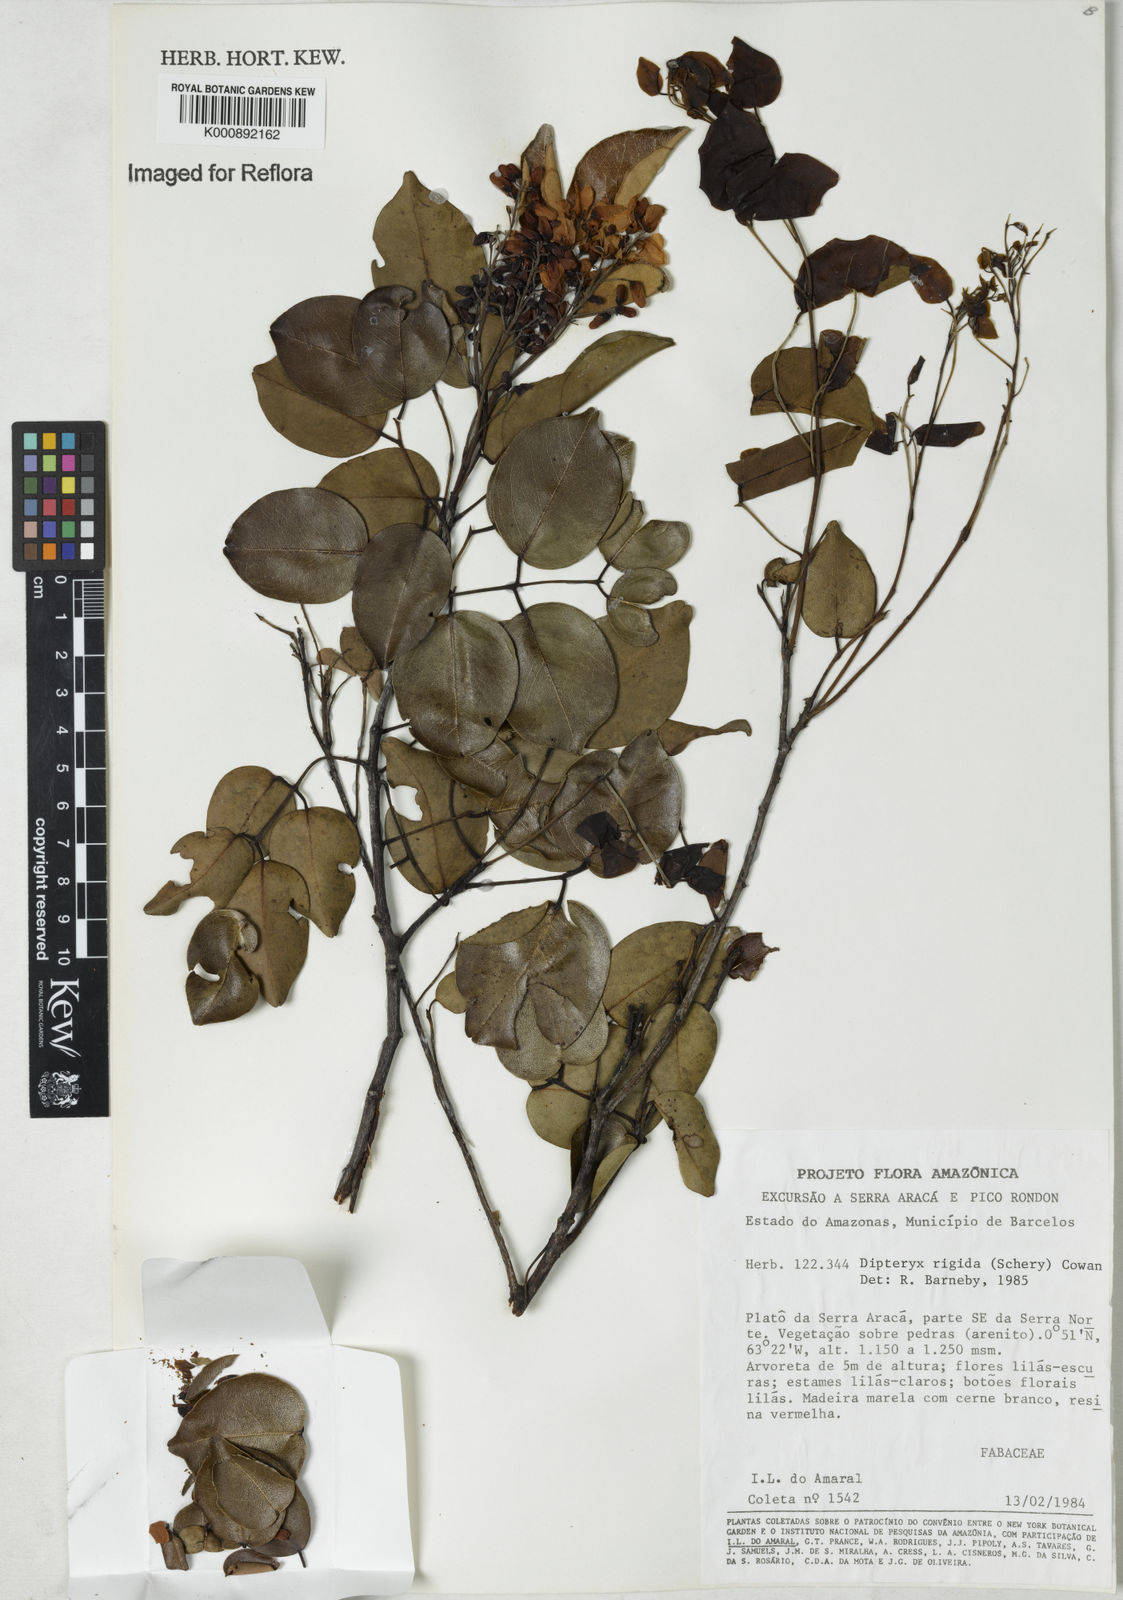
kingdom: Plantae
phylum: Tracheophyta
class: Magnoliopsida
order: Fabales
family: Fabaceae
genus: Taralea
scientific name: Taralea cordata
